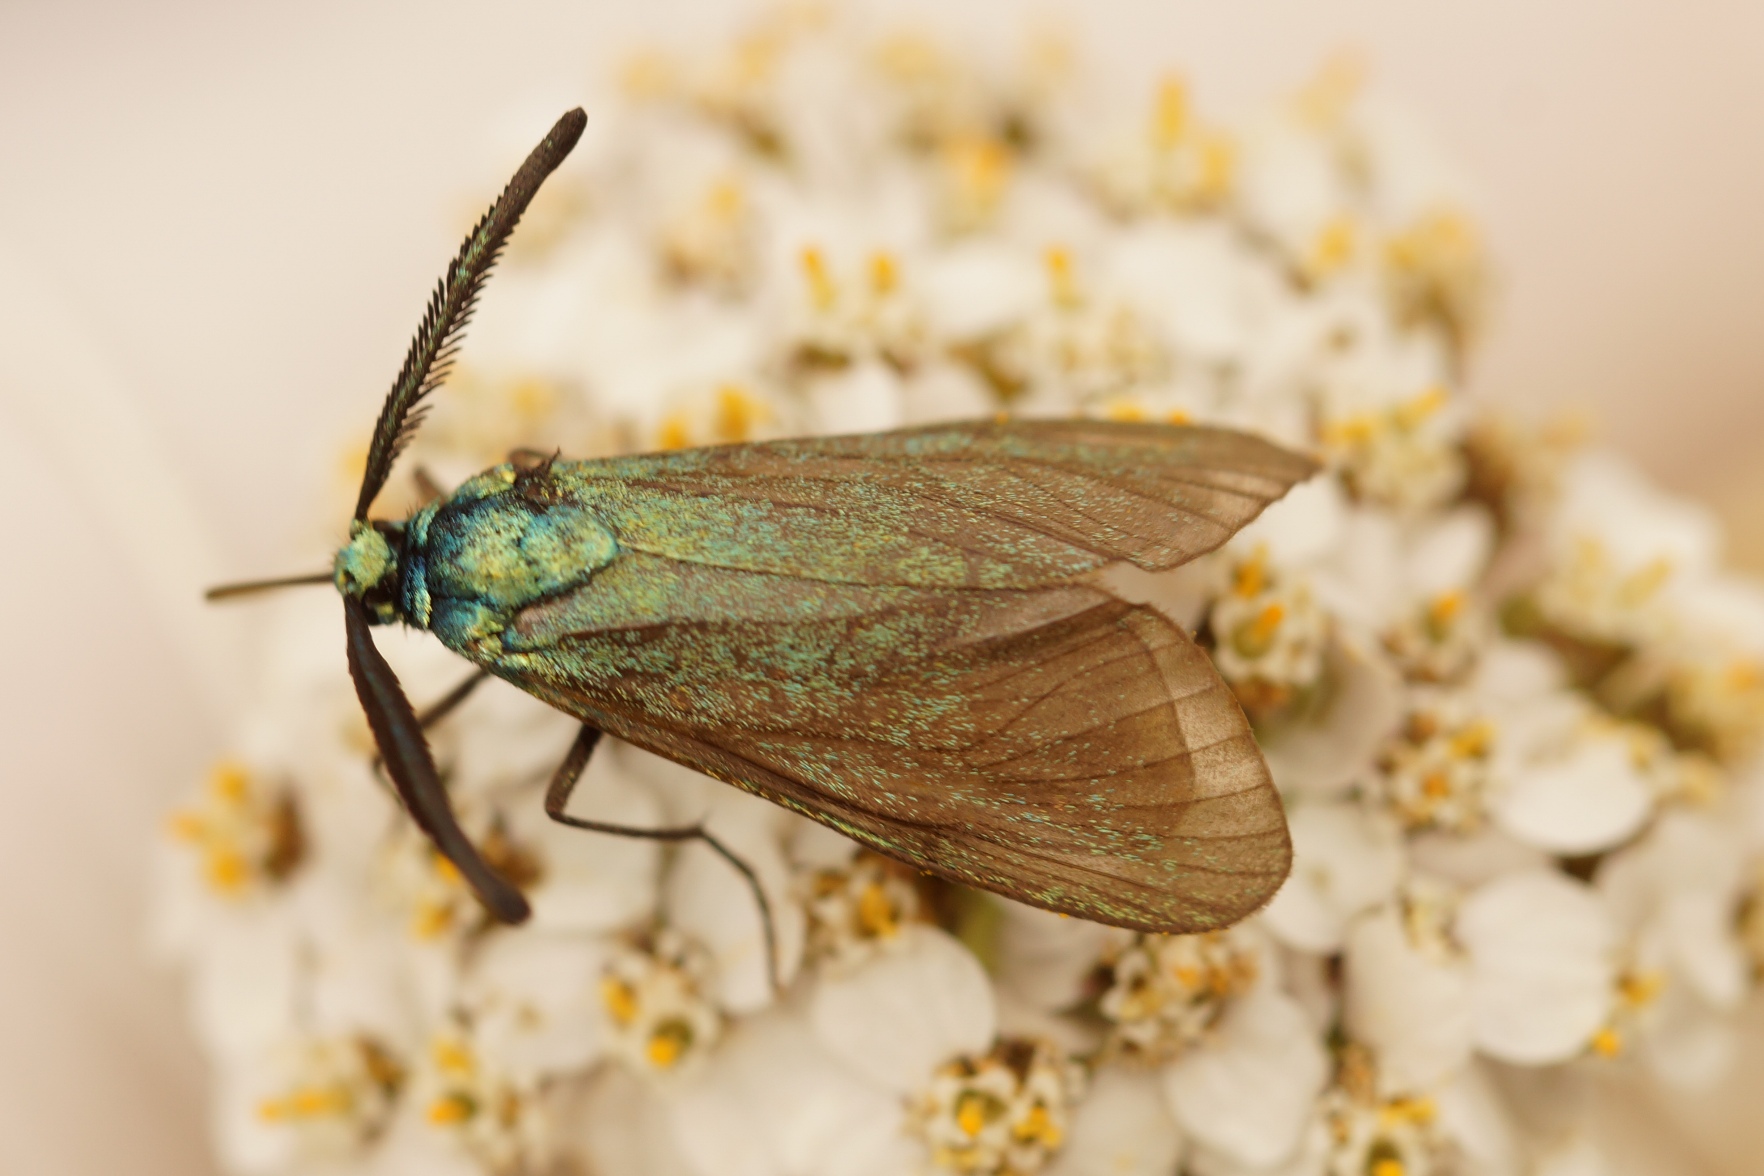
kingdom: Animalia
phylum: Arthropoda
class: Insecta
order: Lepidoptera
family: Zygaenidae
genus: Adscita
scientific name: Adscita statices
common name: Metalvinge
